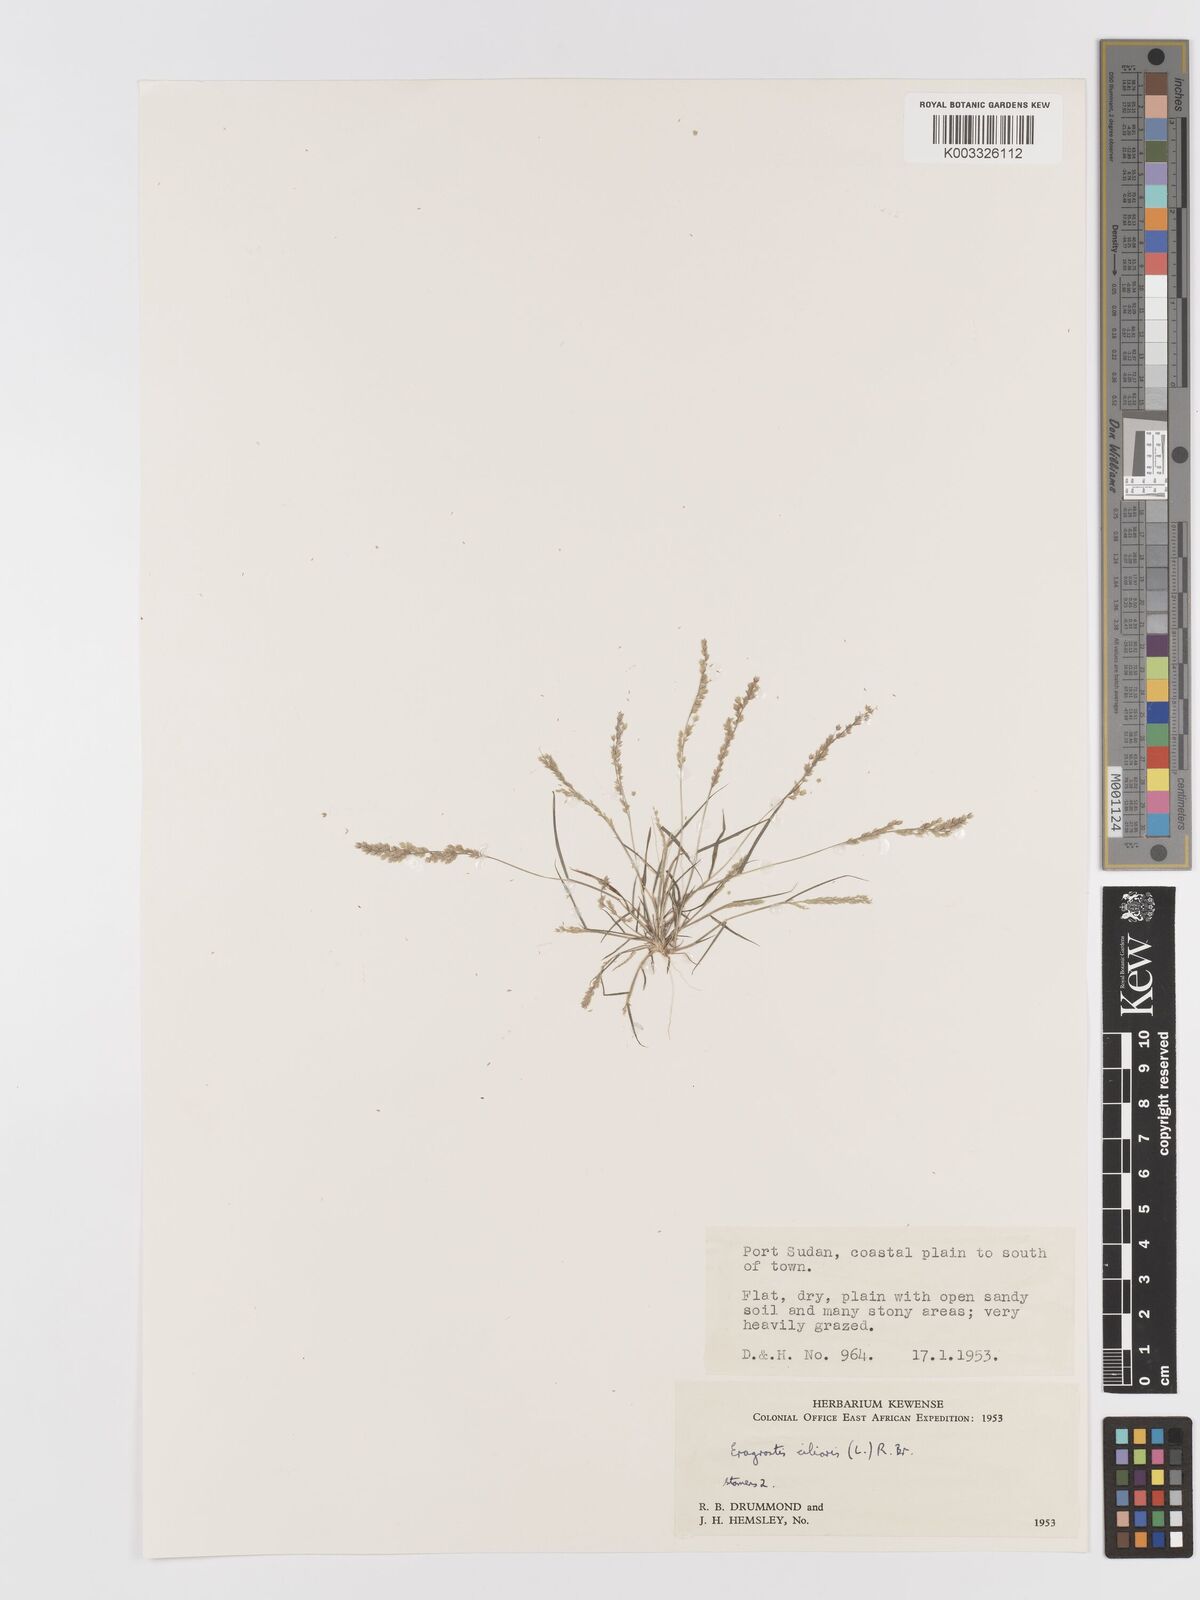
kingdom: Plantae
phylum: Tracheophyta
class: Liliopsida
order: Poales
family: Poaceae
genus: Eragrostis
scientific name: Eragrostis ciliaris
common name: Gophertail lovegrass
